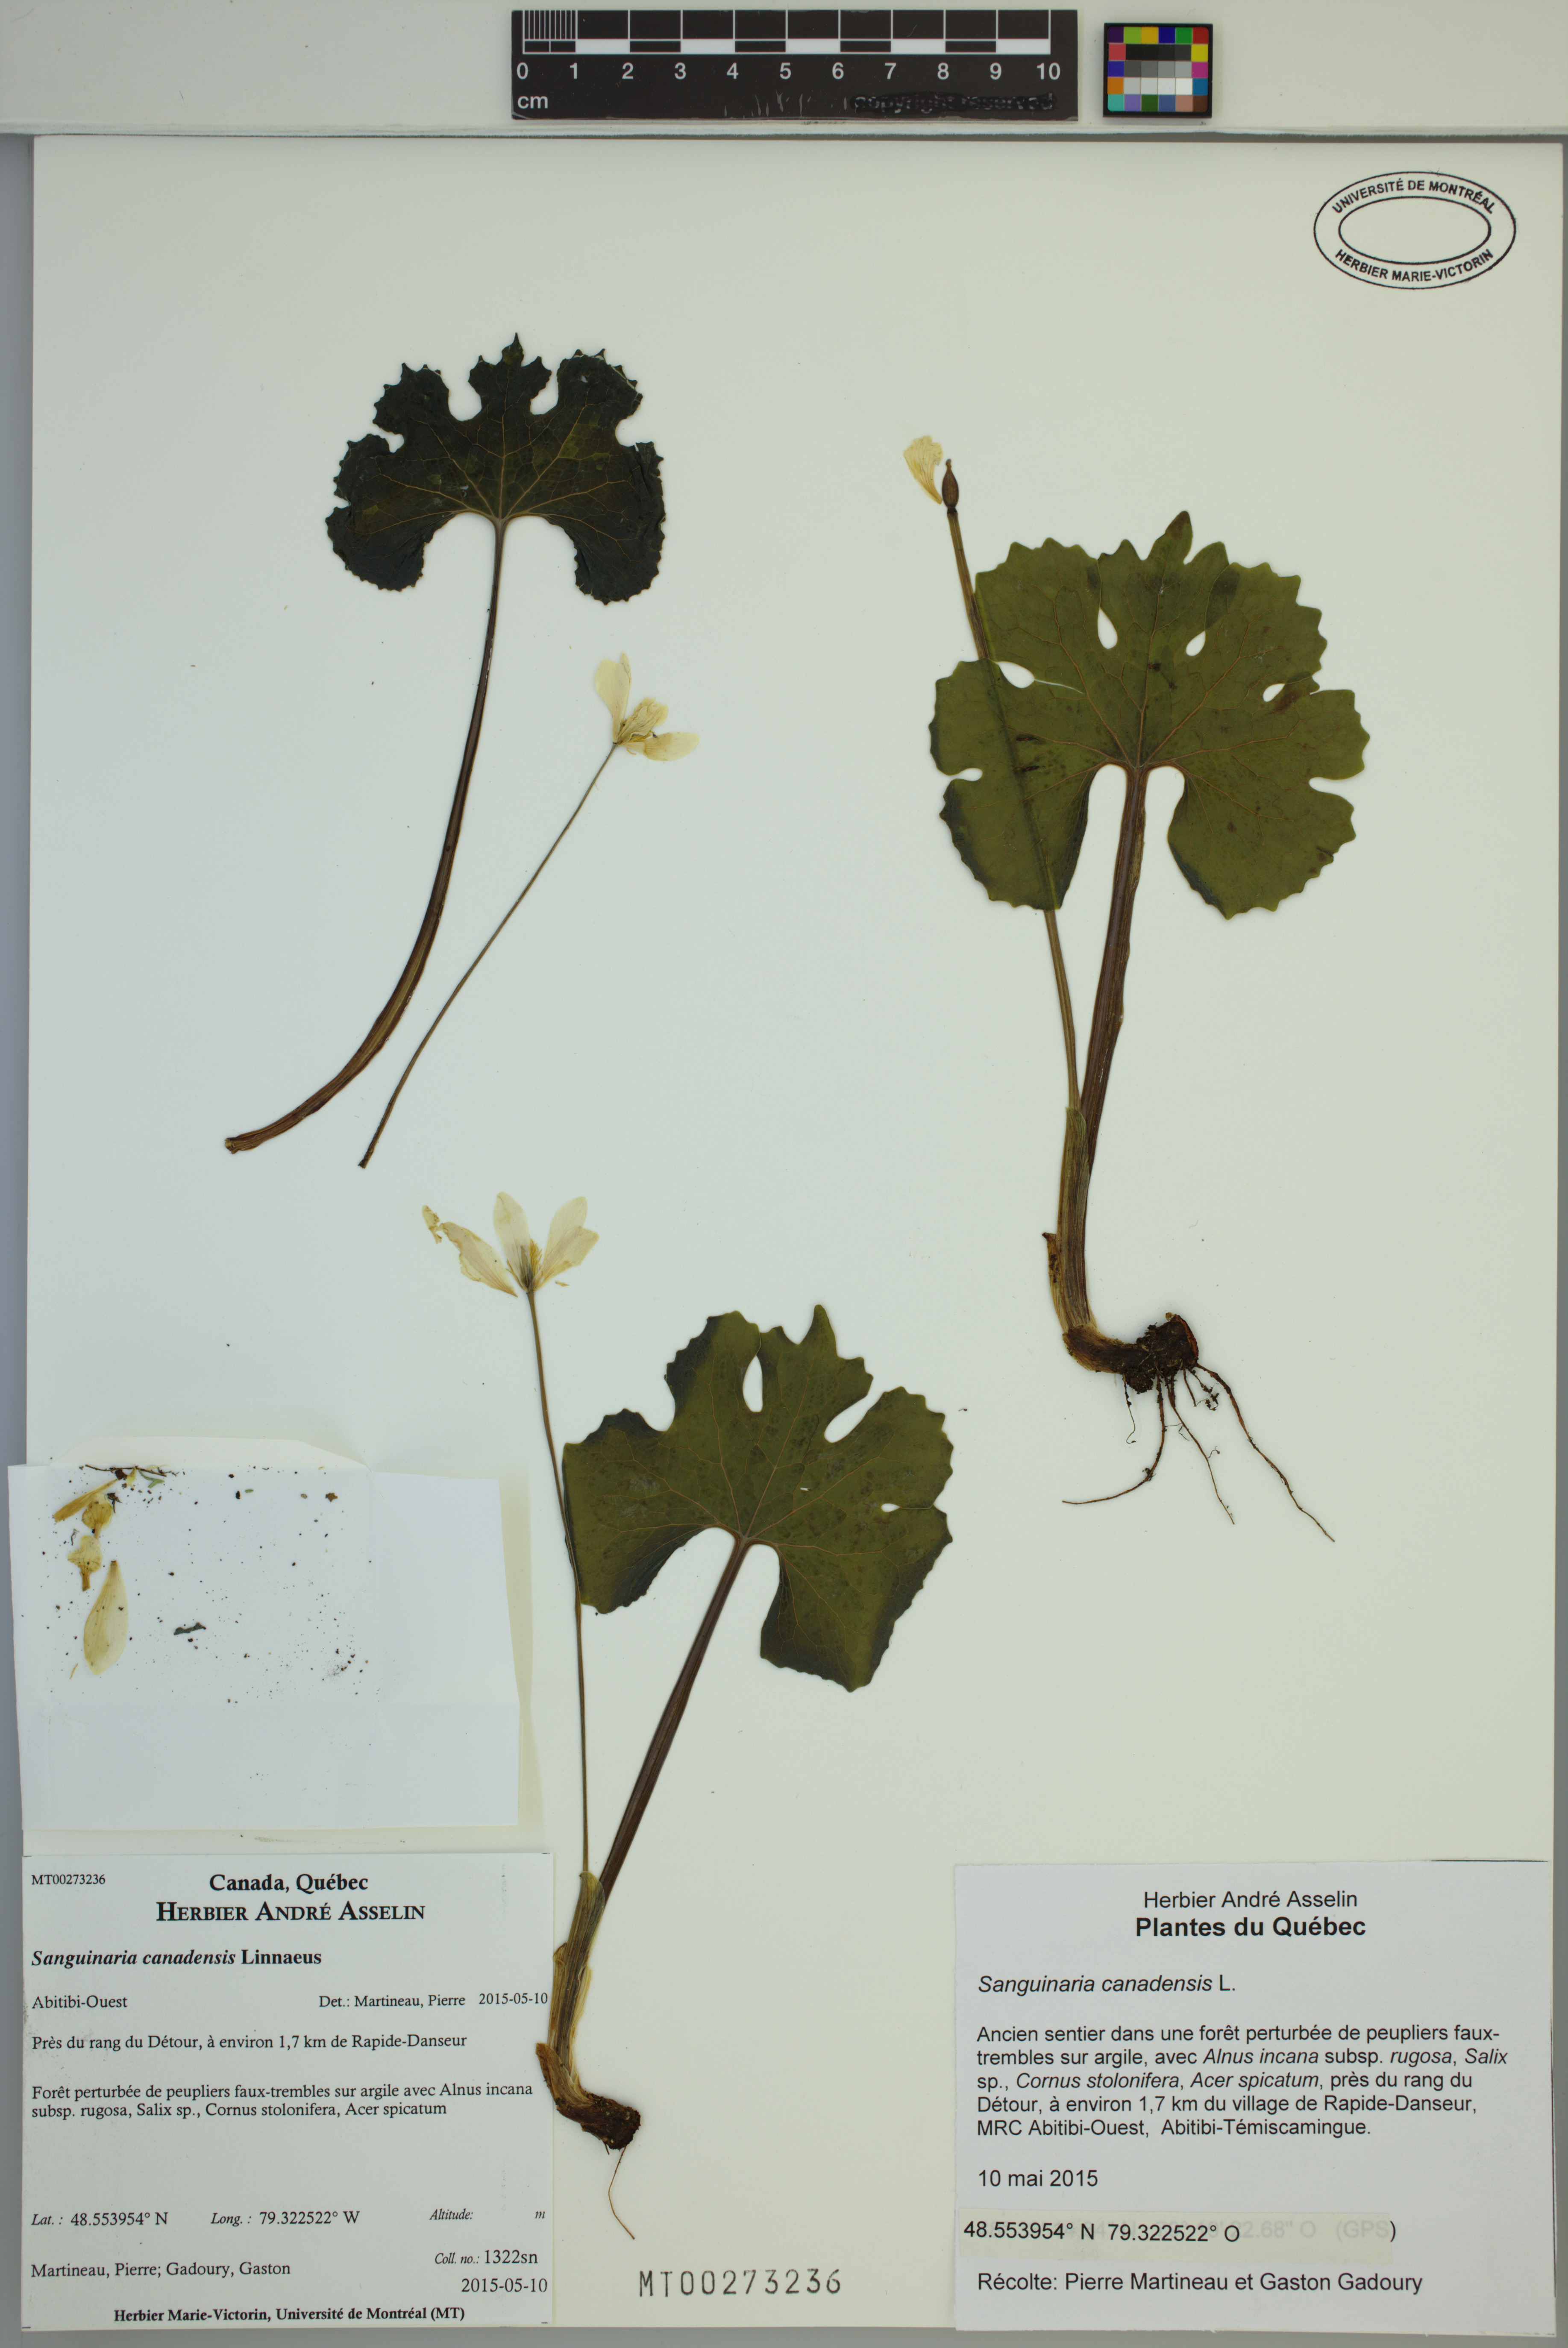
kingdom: Plantae
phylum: Tracheophyta
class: Magnoliopsida
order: Ranunculales
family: Papaveraceae
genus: Sanguinaria
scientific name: Sanguinaria canadensis
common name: Bloodroot
